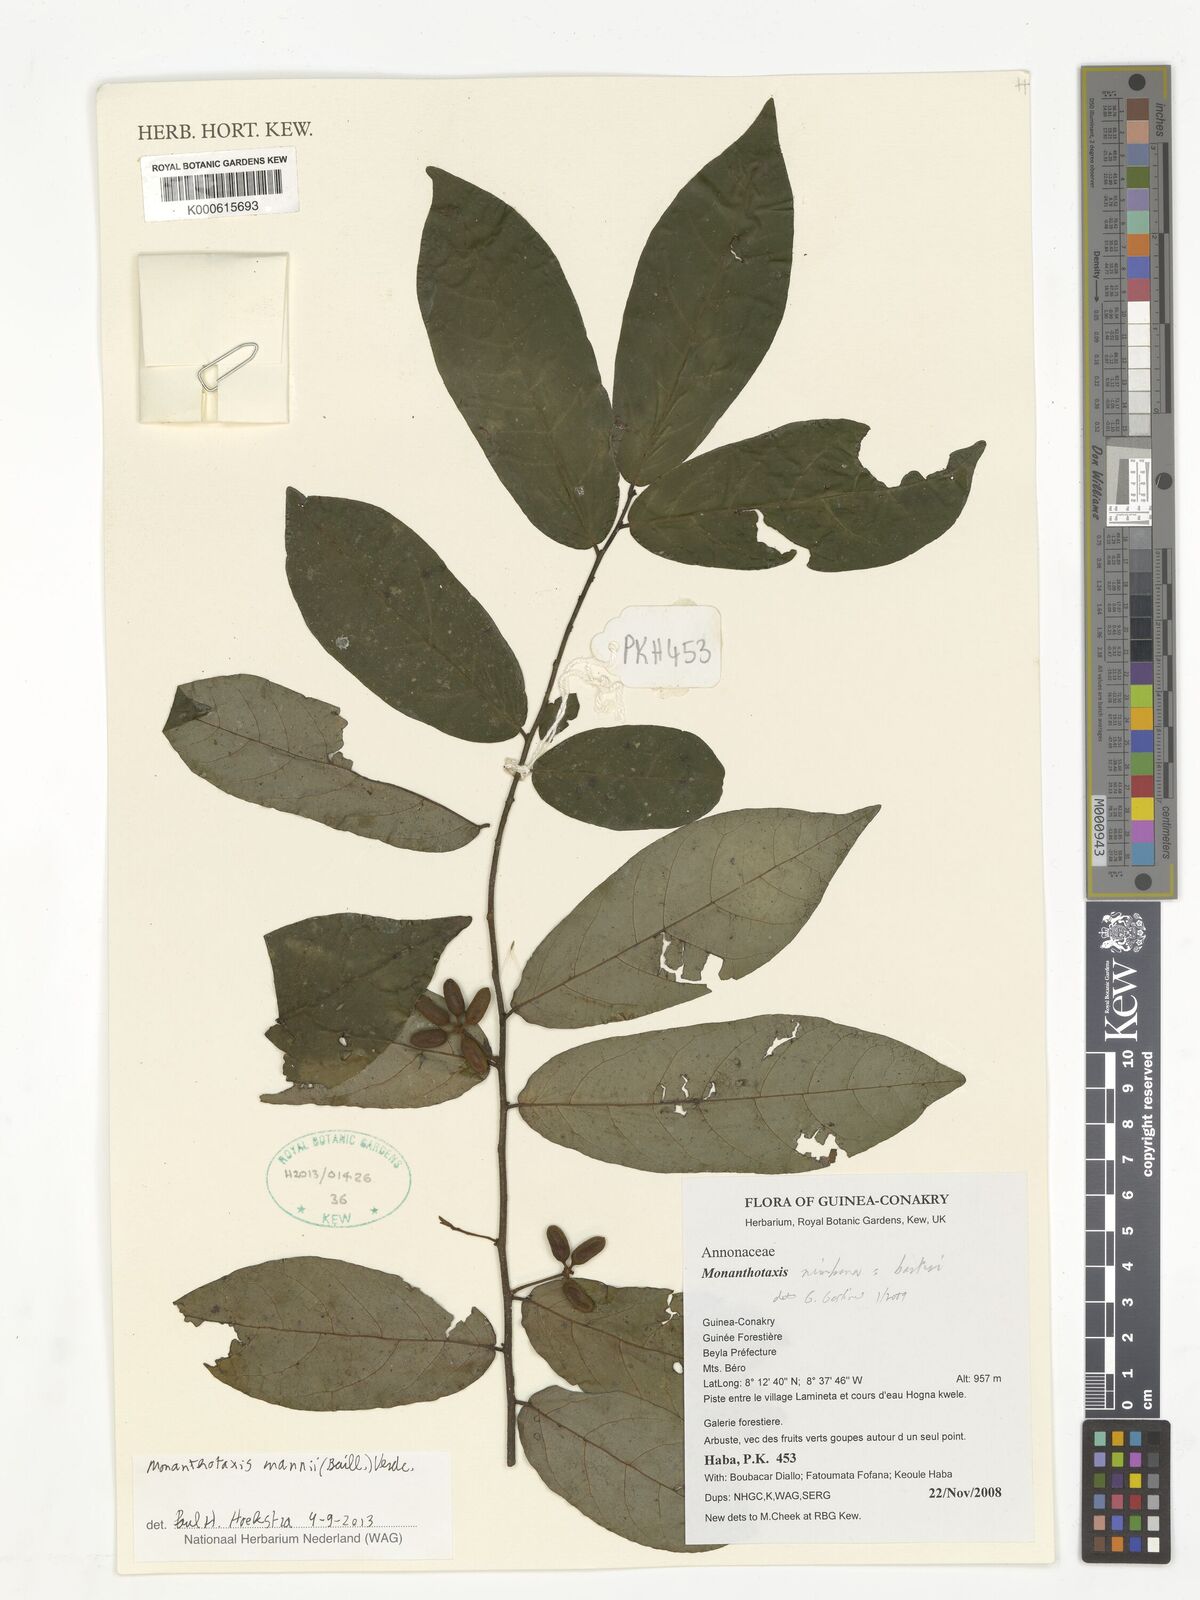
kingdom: Plantae
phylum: Tracheophyta
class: Magnoliopsida
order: Magnoliales
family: Annonaceae
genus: Monanthotaxis
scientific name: Monanthotaxis mannii
